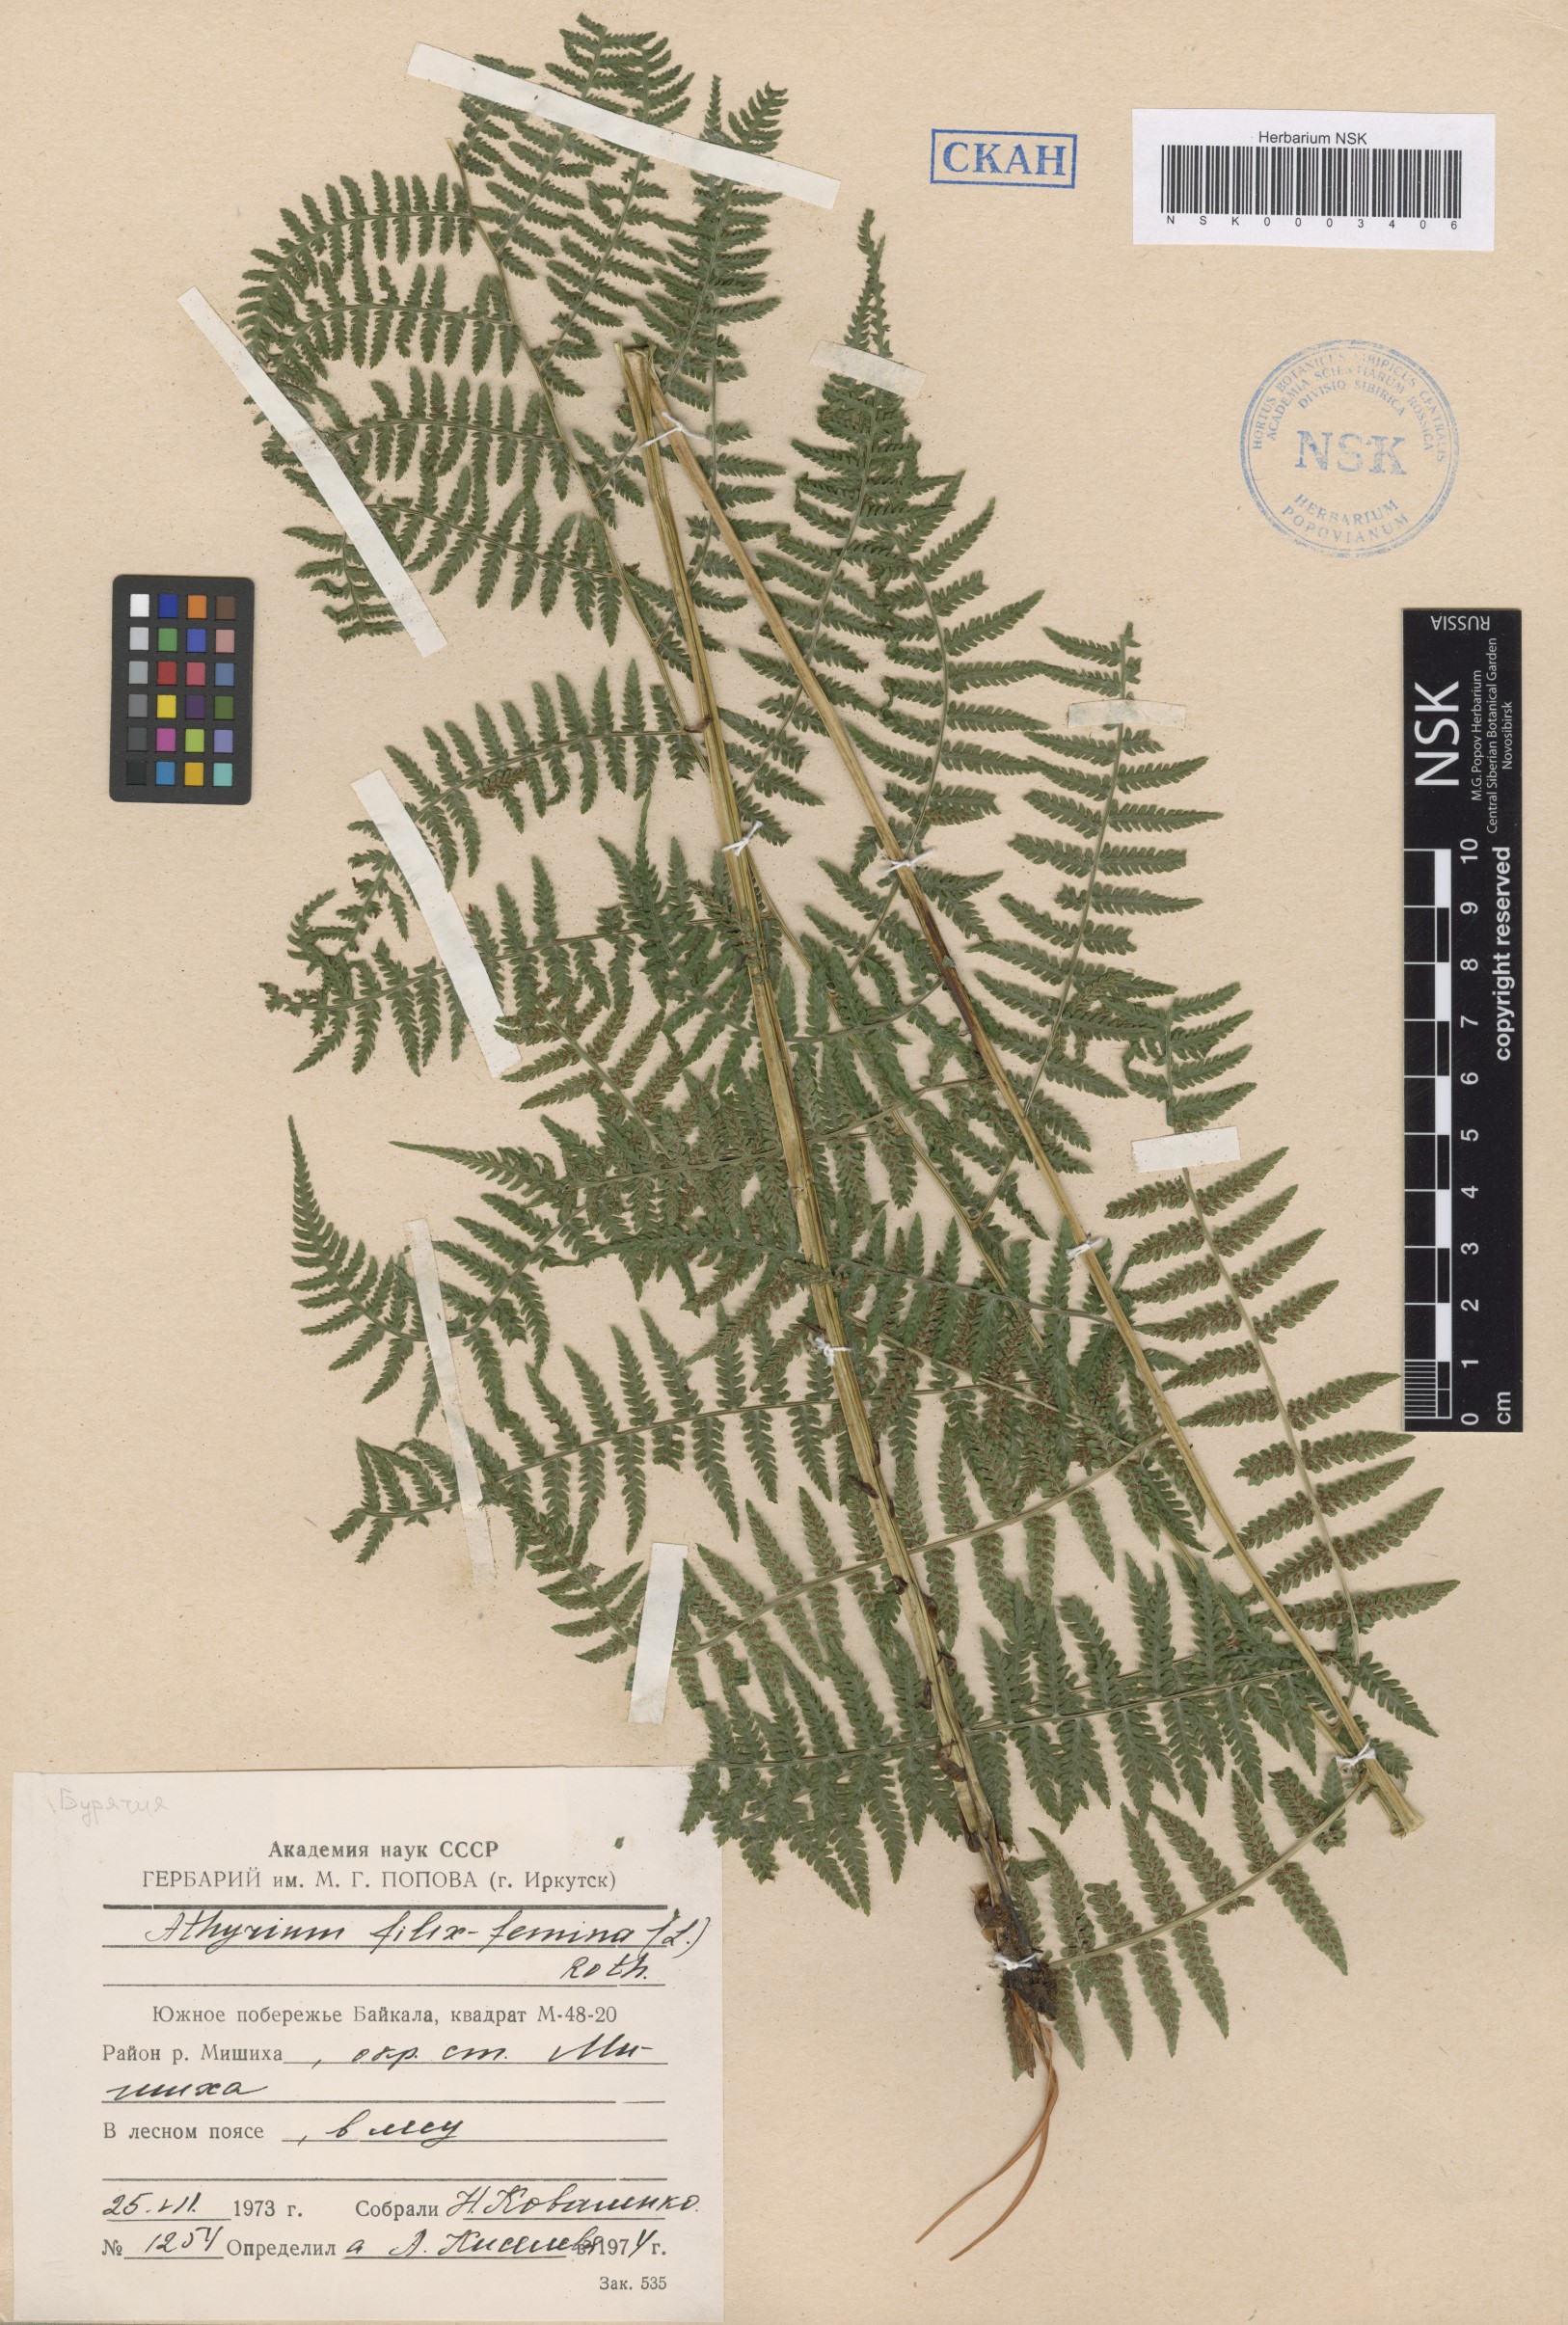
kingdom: Plantae
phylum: Tracheophyta
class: Polypodiopsida
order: Polypodiales
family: Athyriaceae
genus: Athyrium
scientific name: Athyrium filix-femina
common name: Lady fern
